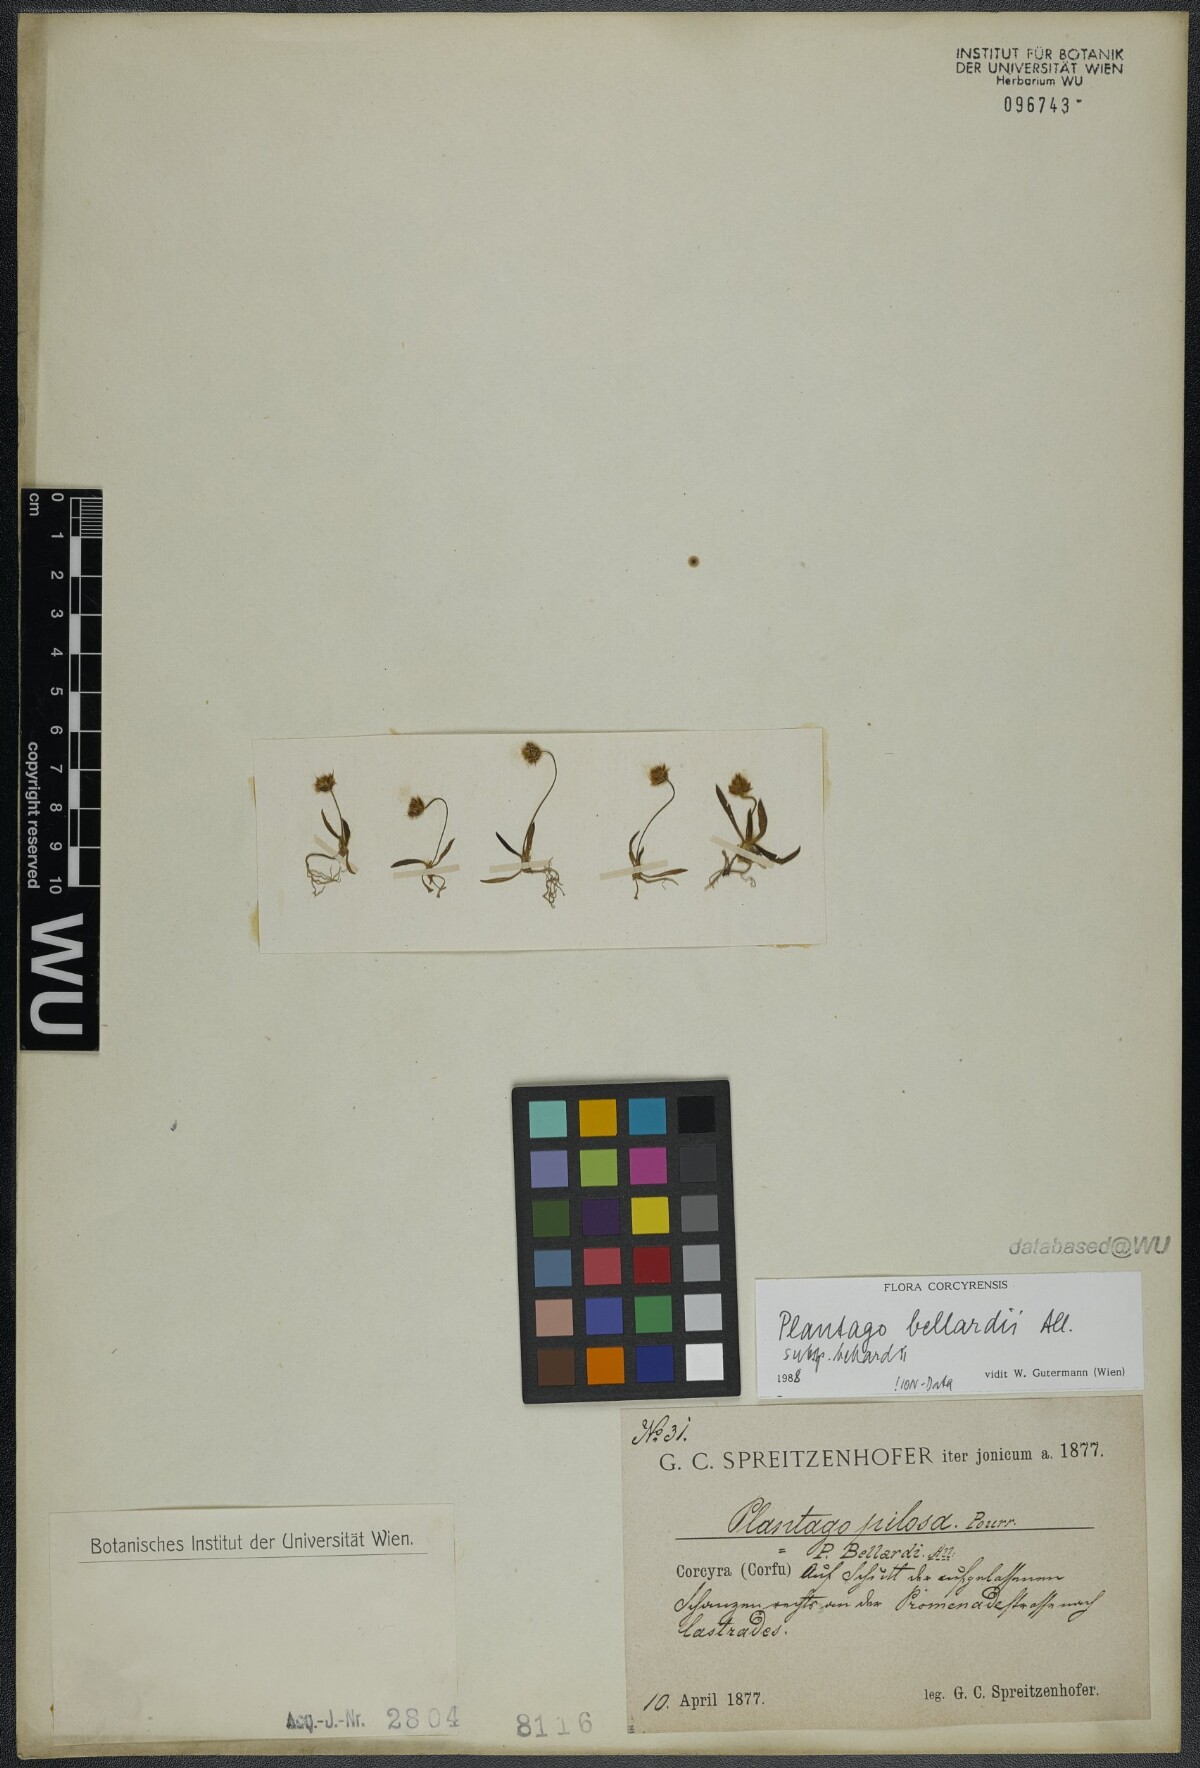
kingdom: Plantae
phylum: Tracheophyta
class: Magnoliopsida
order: Lamiales
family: Plantaginaceae
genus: Plantago
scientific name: Plantago bellardii
